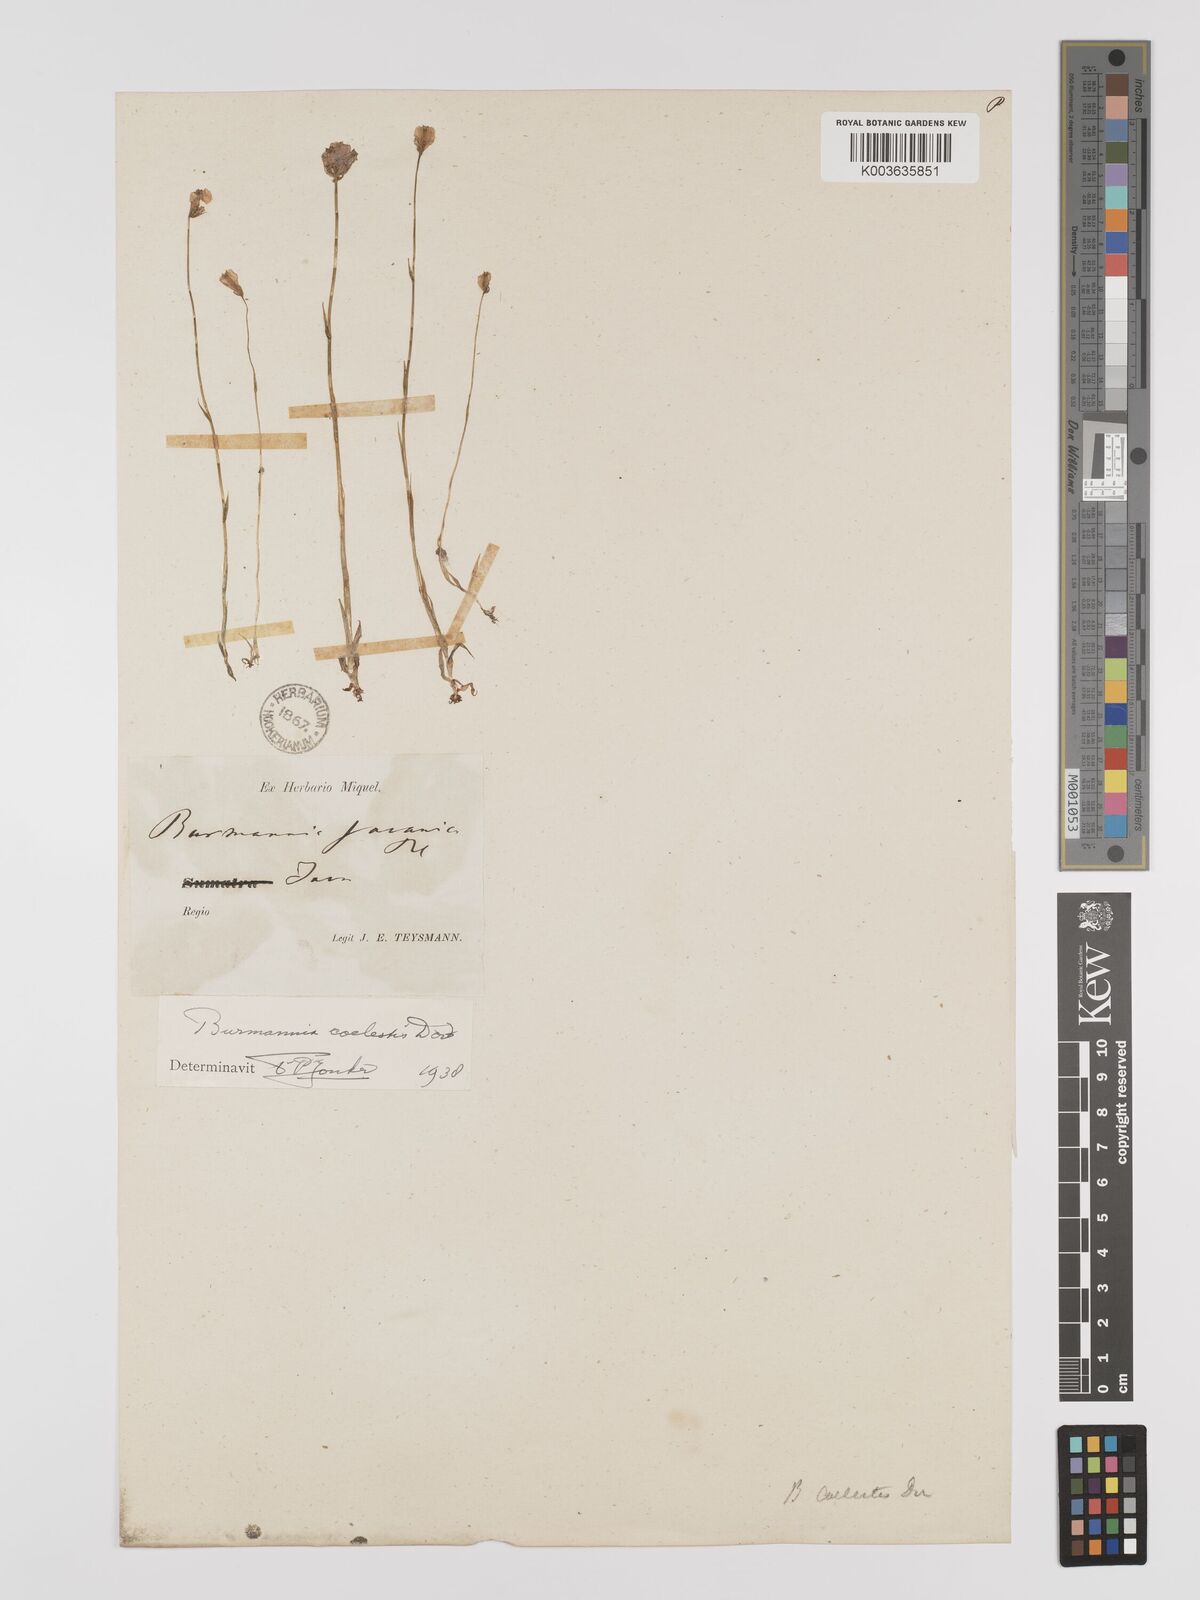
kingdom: Plantae
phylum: Tracheophyta
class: Liliopsida
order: Dioscoreales
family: Burmanniaceae
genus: Burmannia
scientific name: Burmannia coelestis
